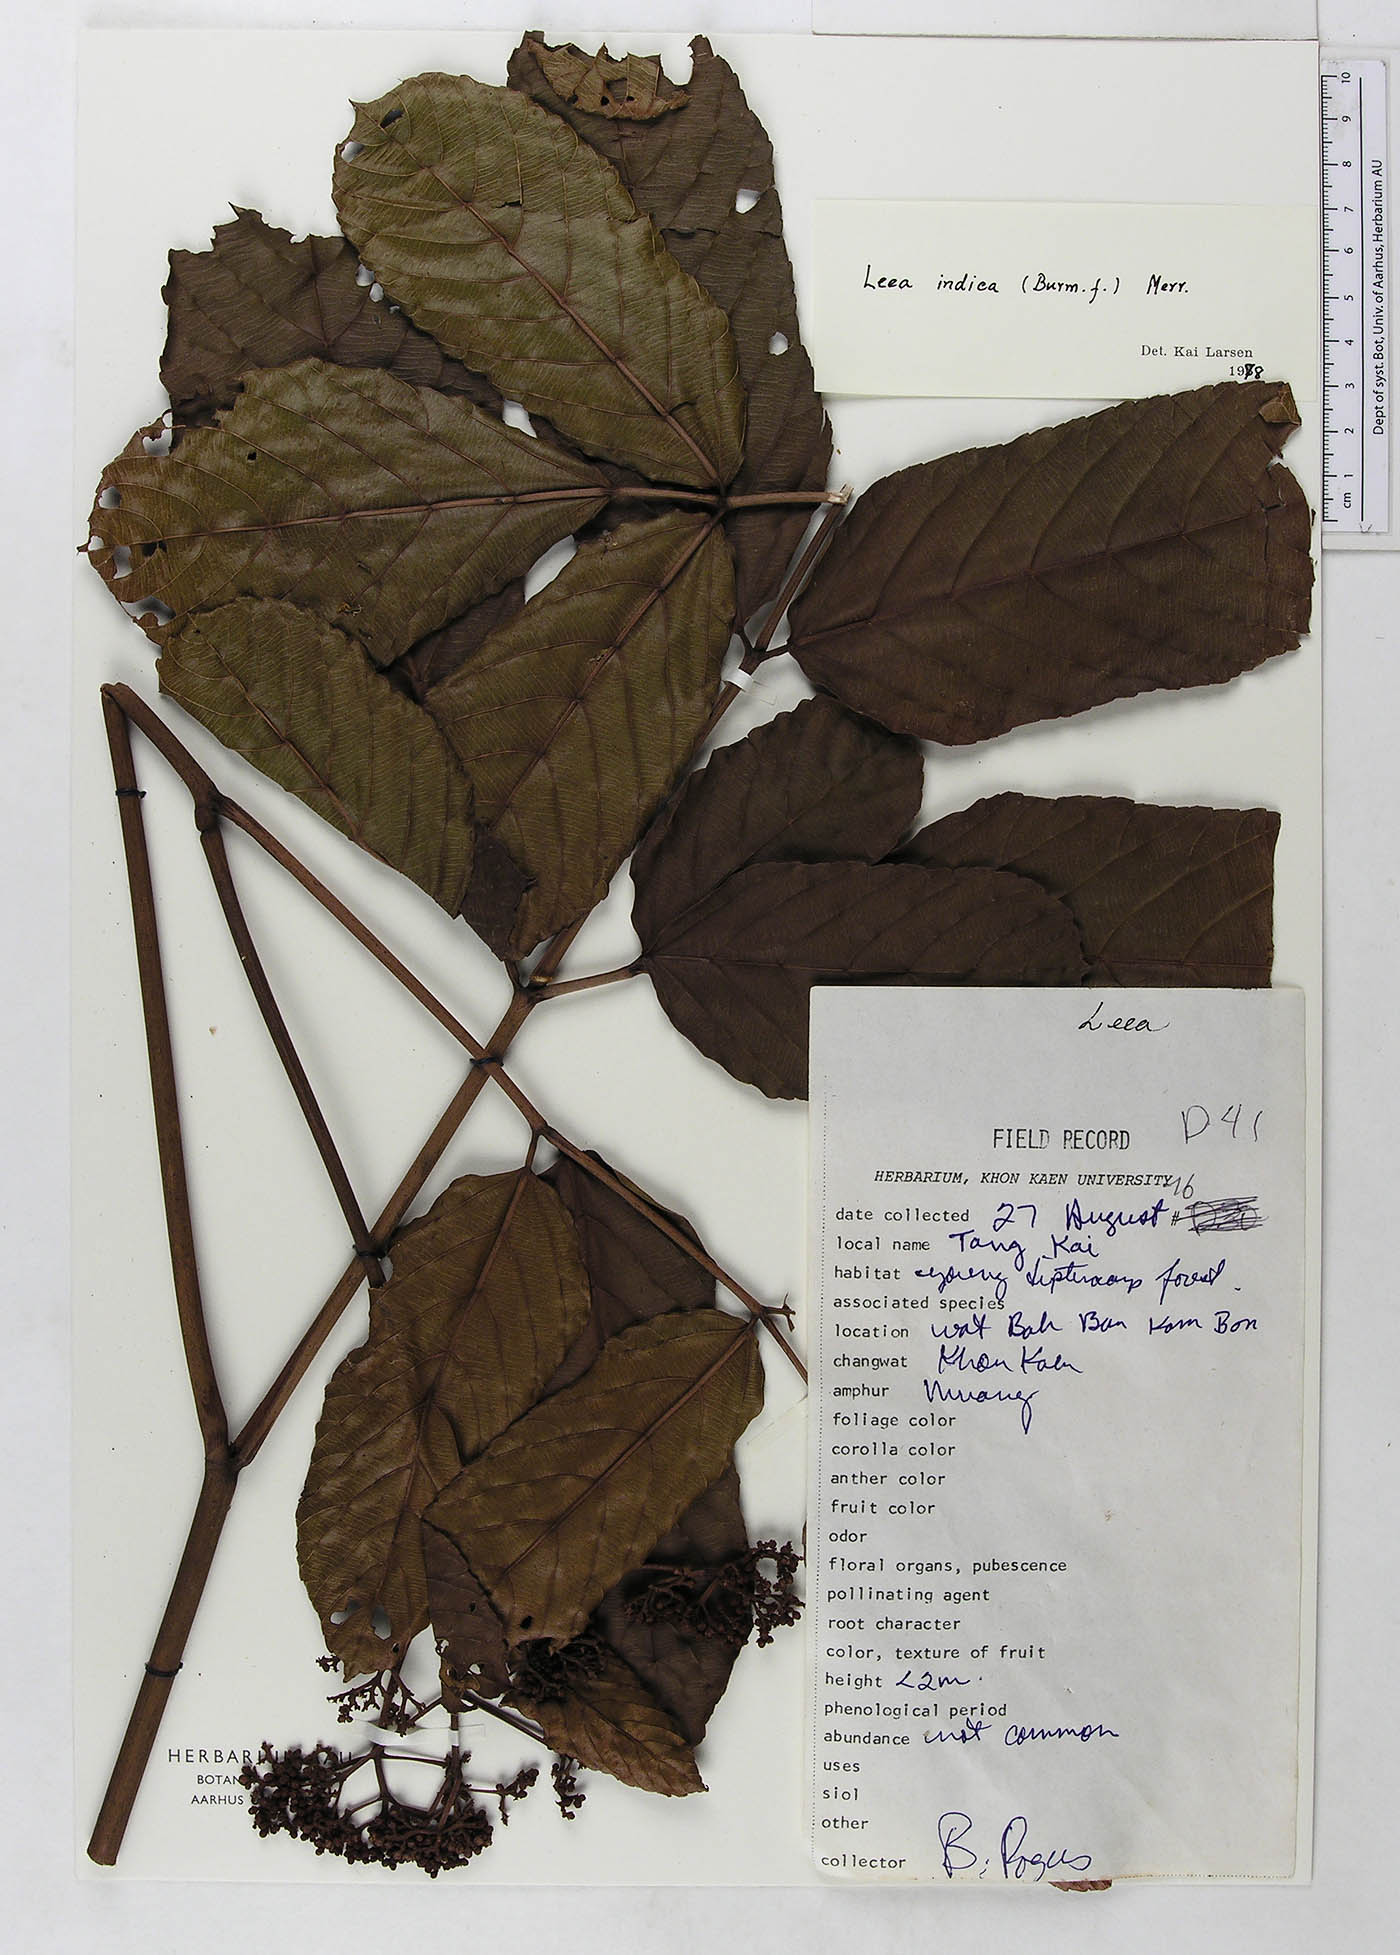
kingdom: Plantae
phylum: Tracheophyta
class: Magnoliopsida
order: Vitales
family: Vitaceae
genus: Leea
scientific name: Leea guineensis
